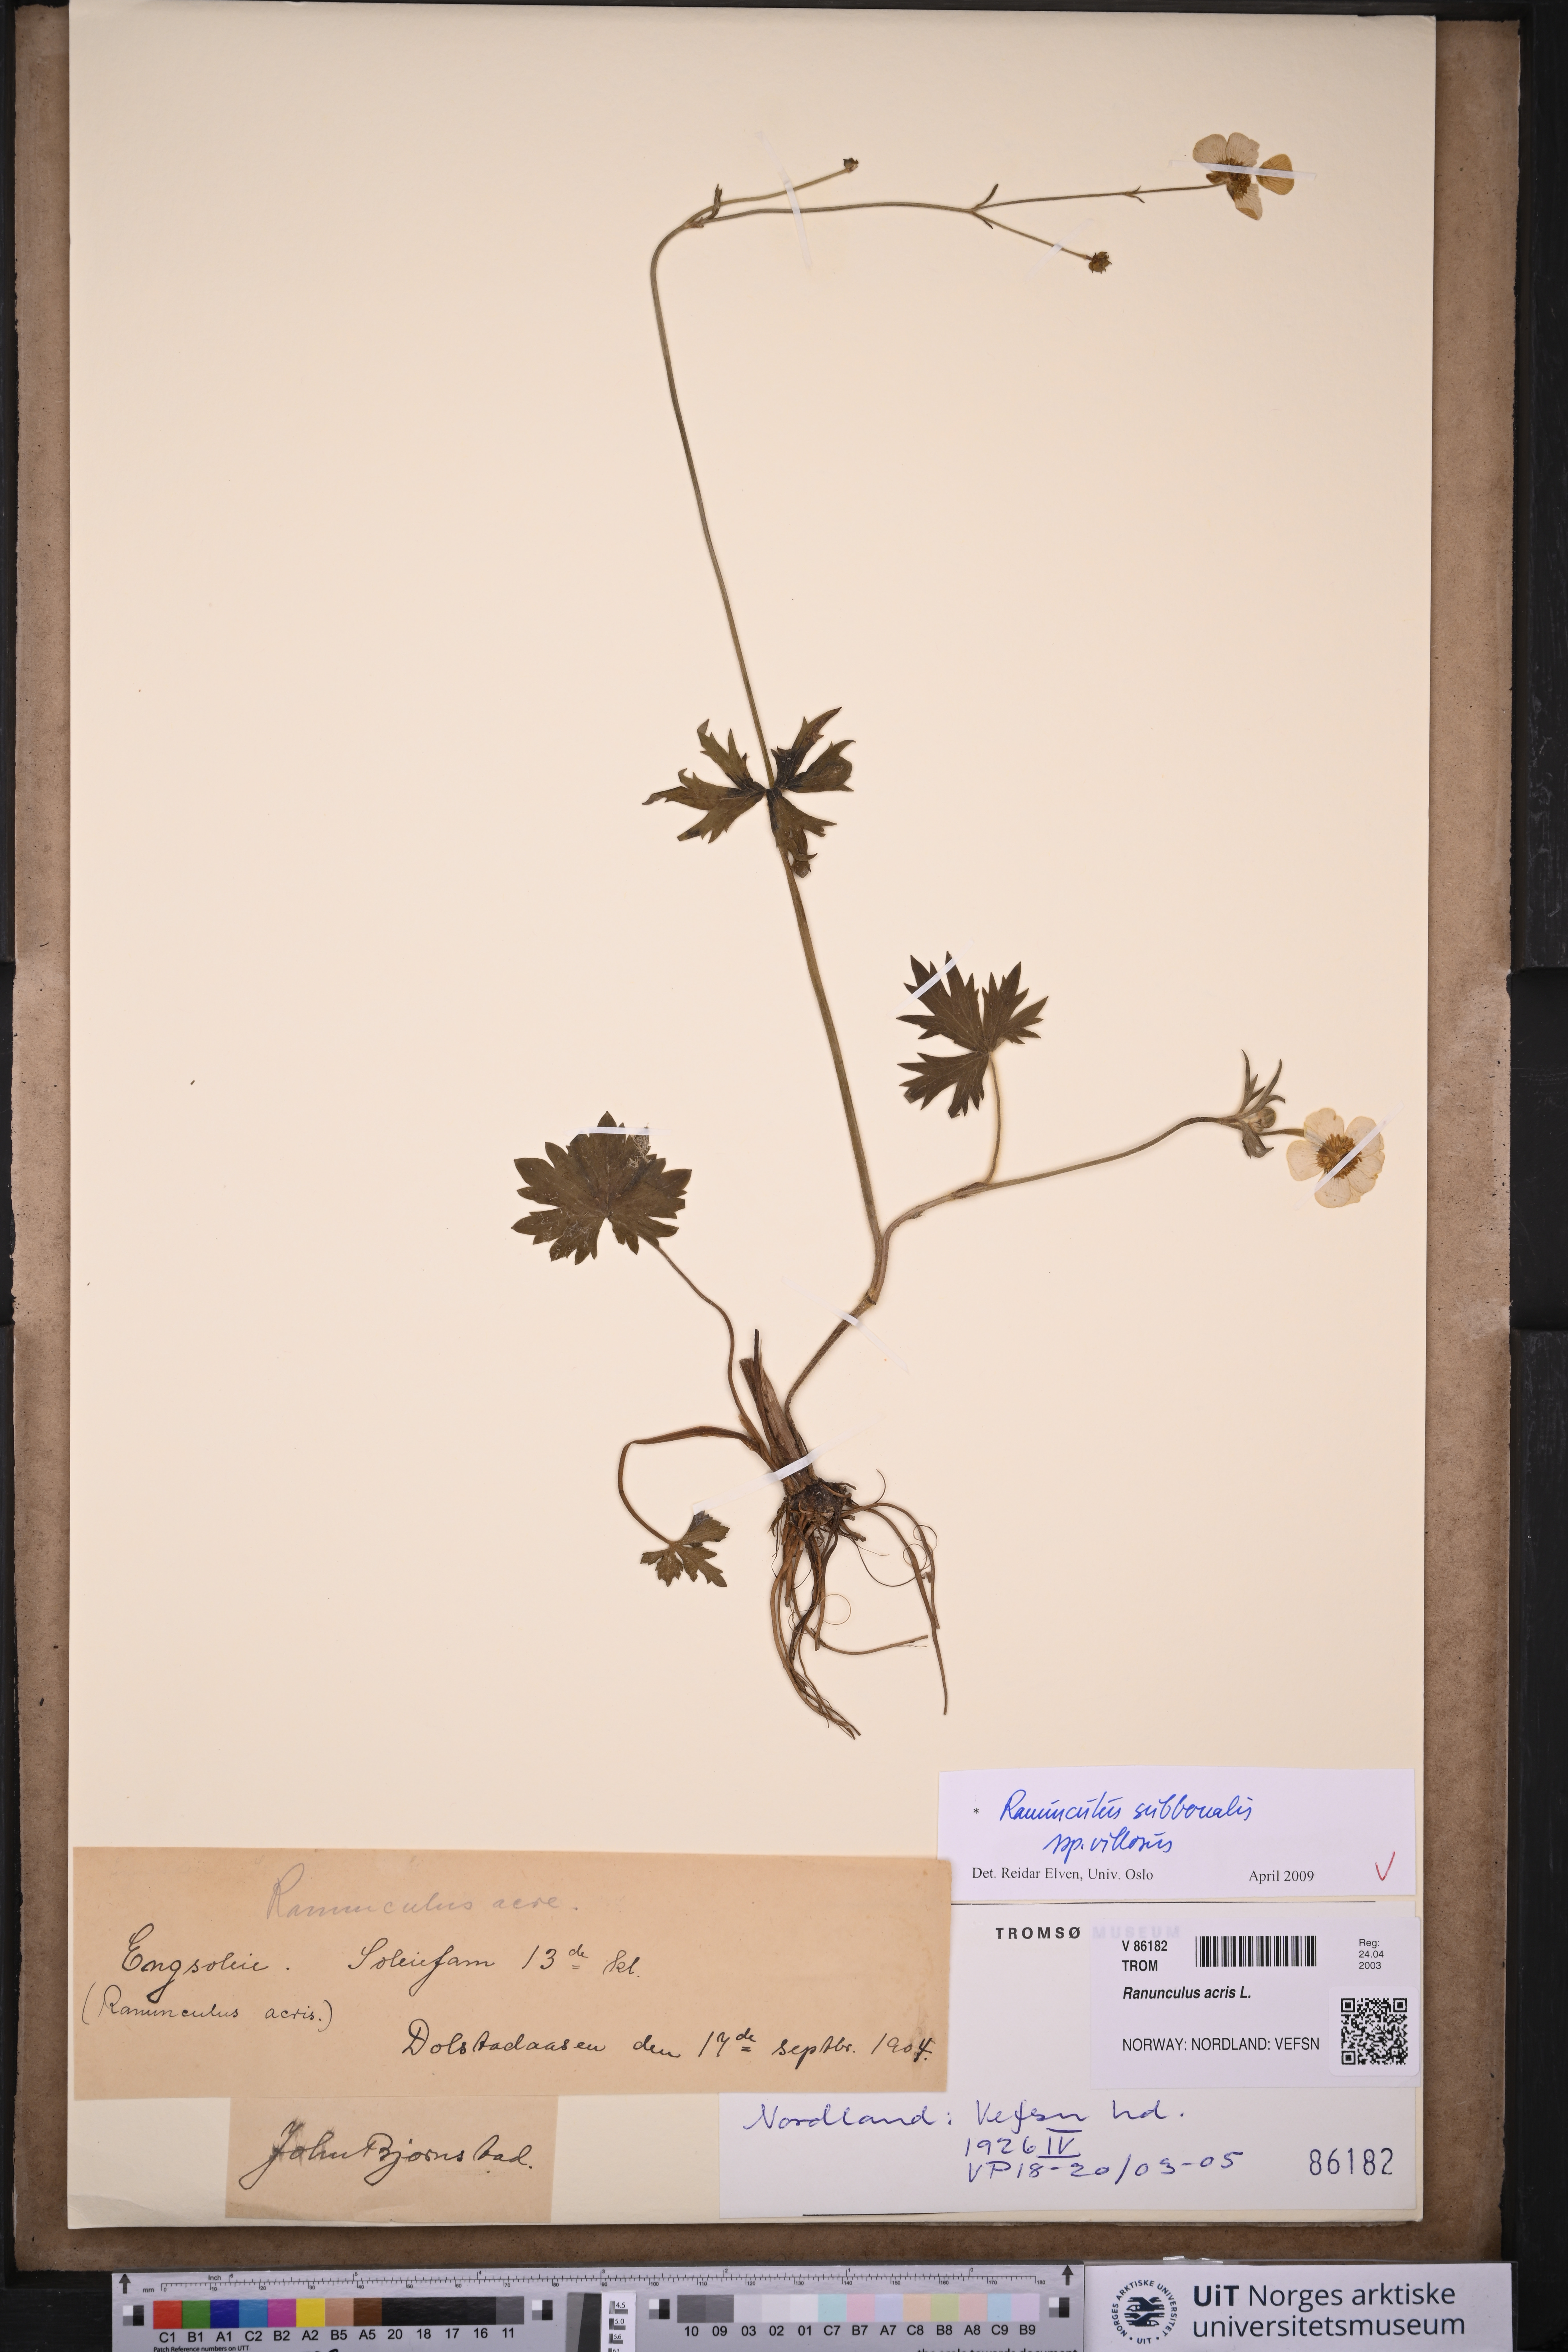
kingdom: Plantae
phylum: Tracheophyta
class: Magnoliopsida
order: Ranunculales
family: Ranunculaceae
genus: Ranunculus
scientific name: Ranunculus propinquus
